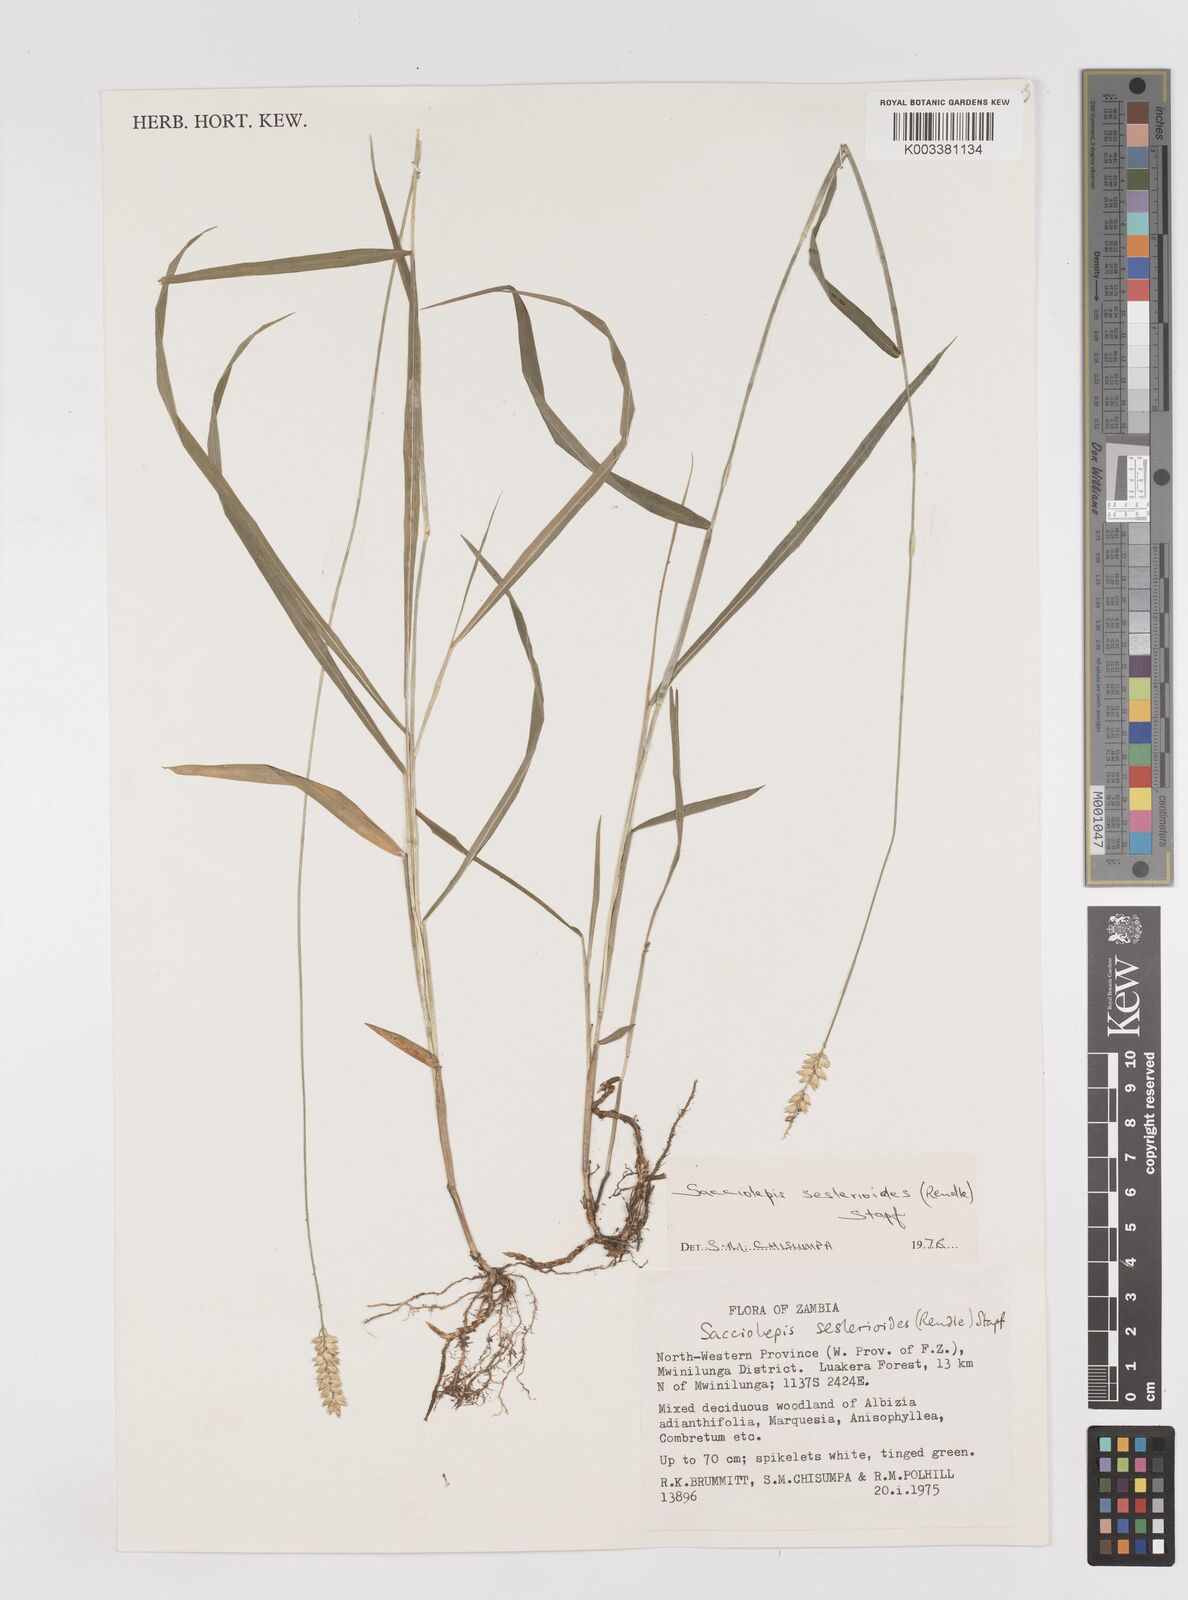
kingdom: Plantae
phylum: Tracheophyta
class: Liliopsida
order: Poales
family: Poaceae
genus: Sacciolepis
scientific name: Sacciolepis seslerioides
